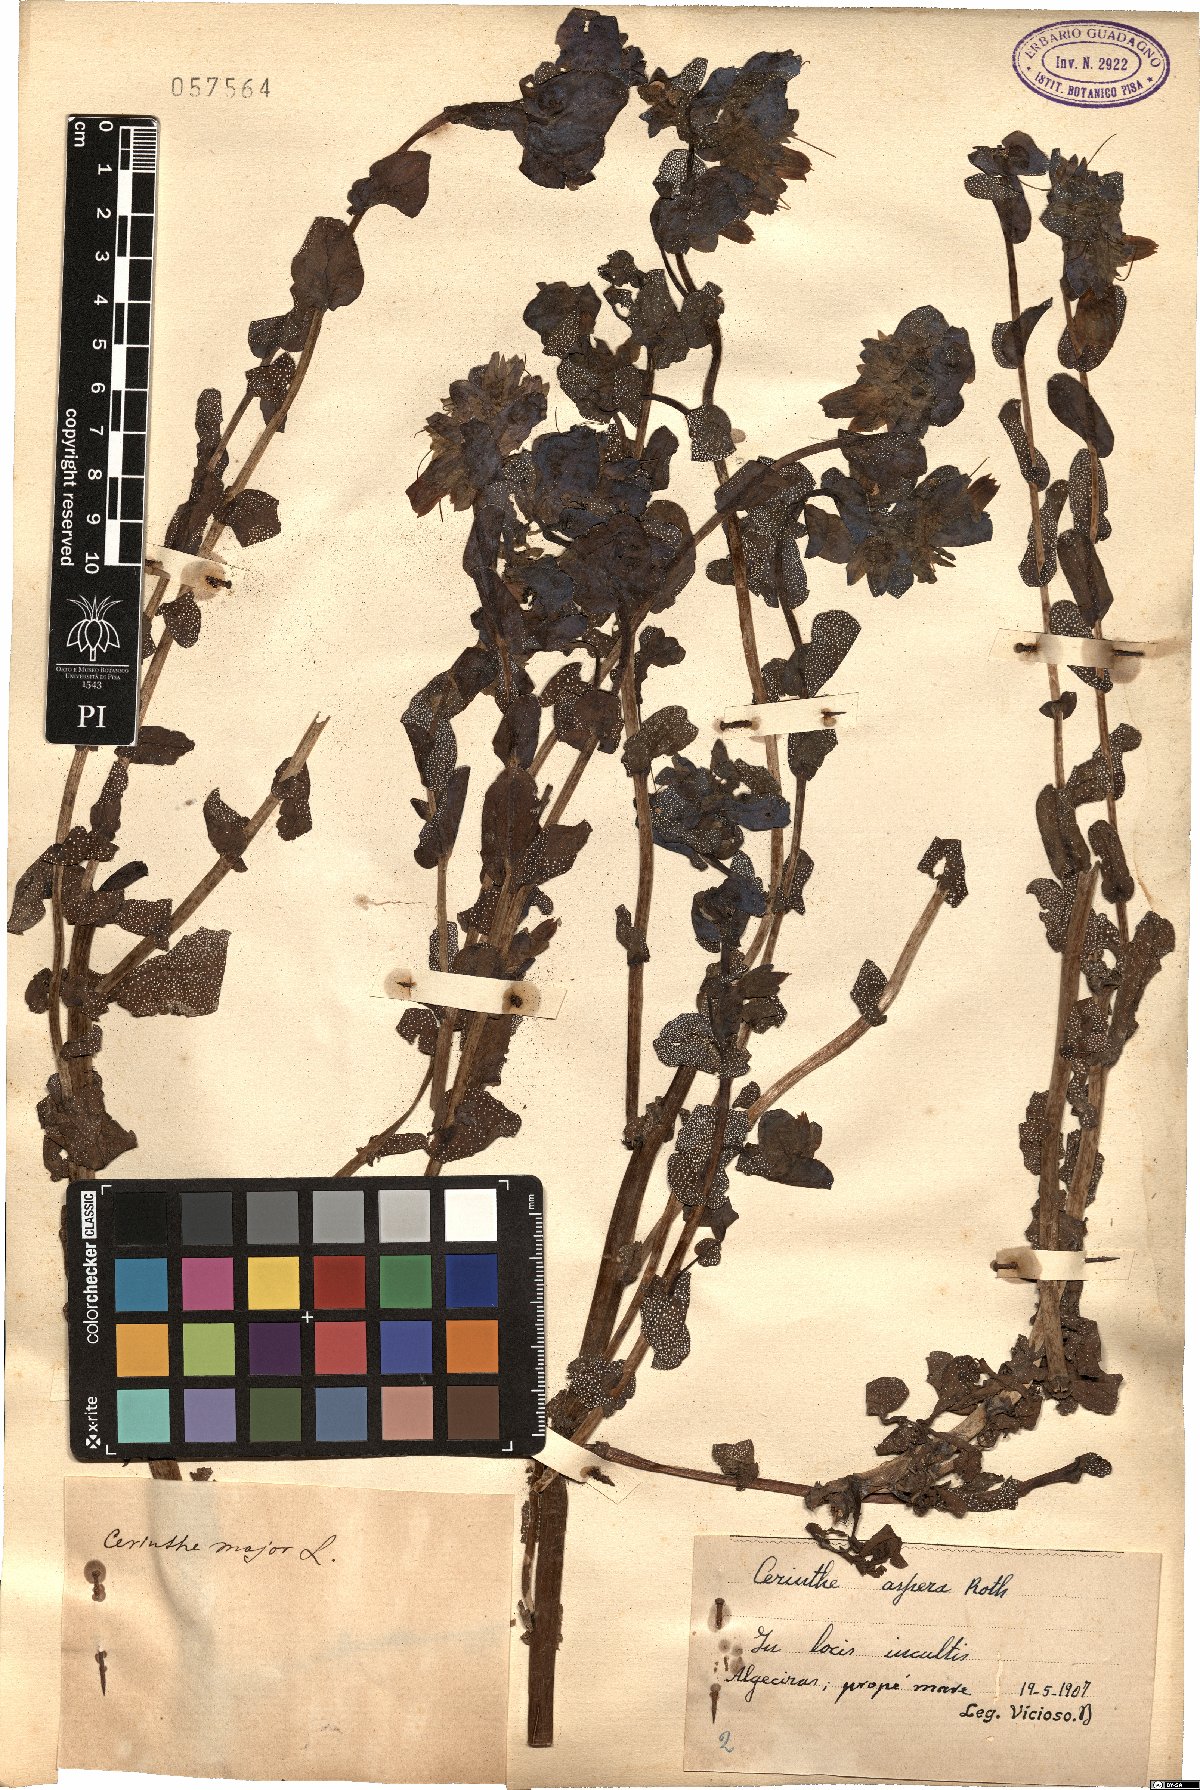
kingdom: Plantae
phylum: Tracheophyta
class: Magnoliopsida
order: Boraginales
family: Boraginaceae
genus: Cerinthe
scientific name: Cerinthe major
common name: Greater honeywort
